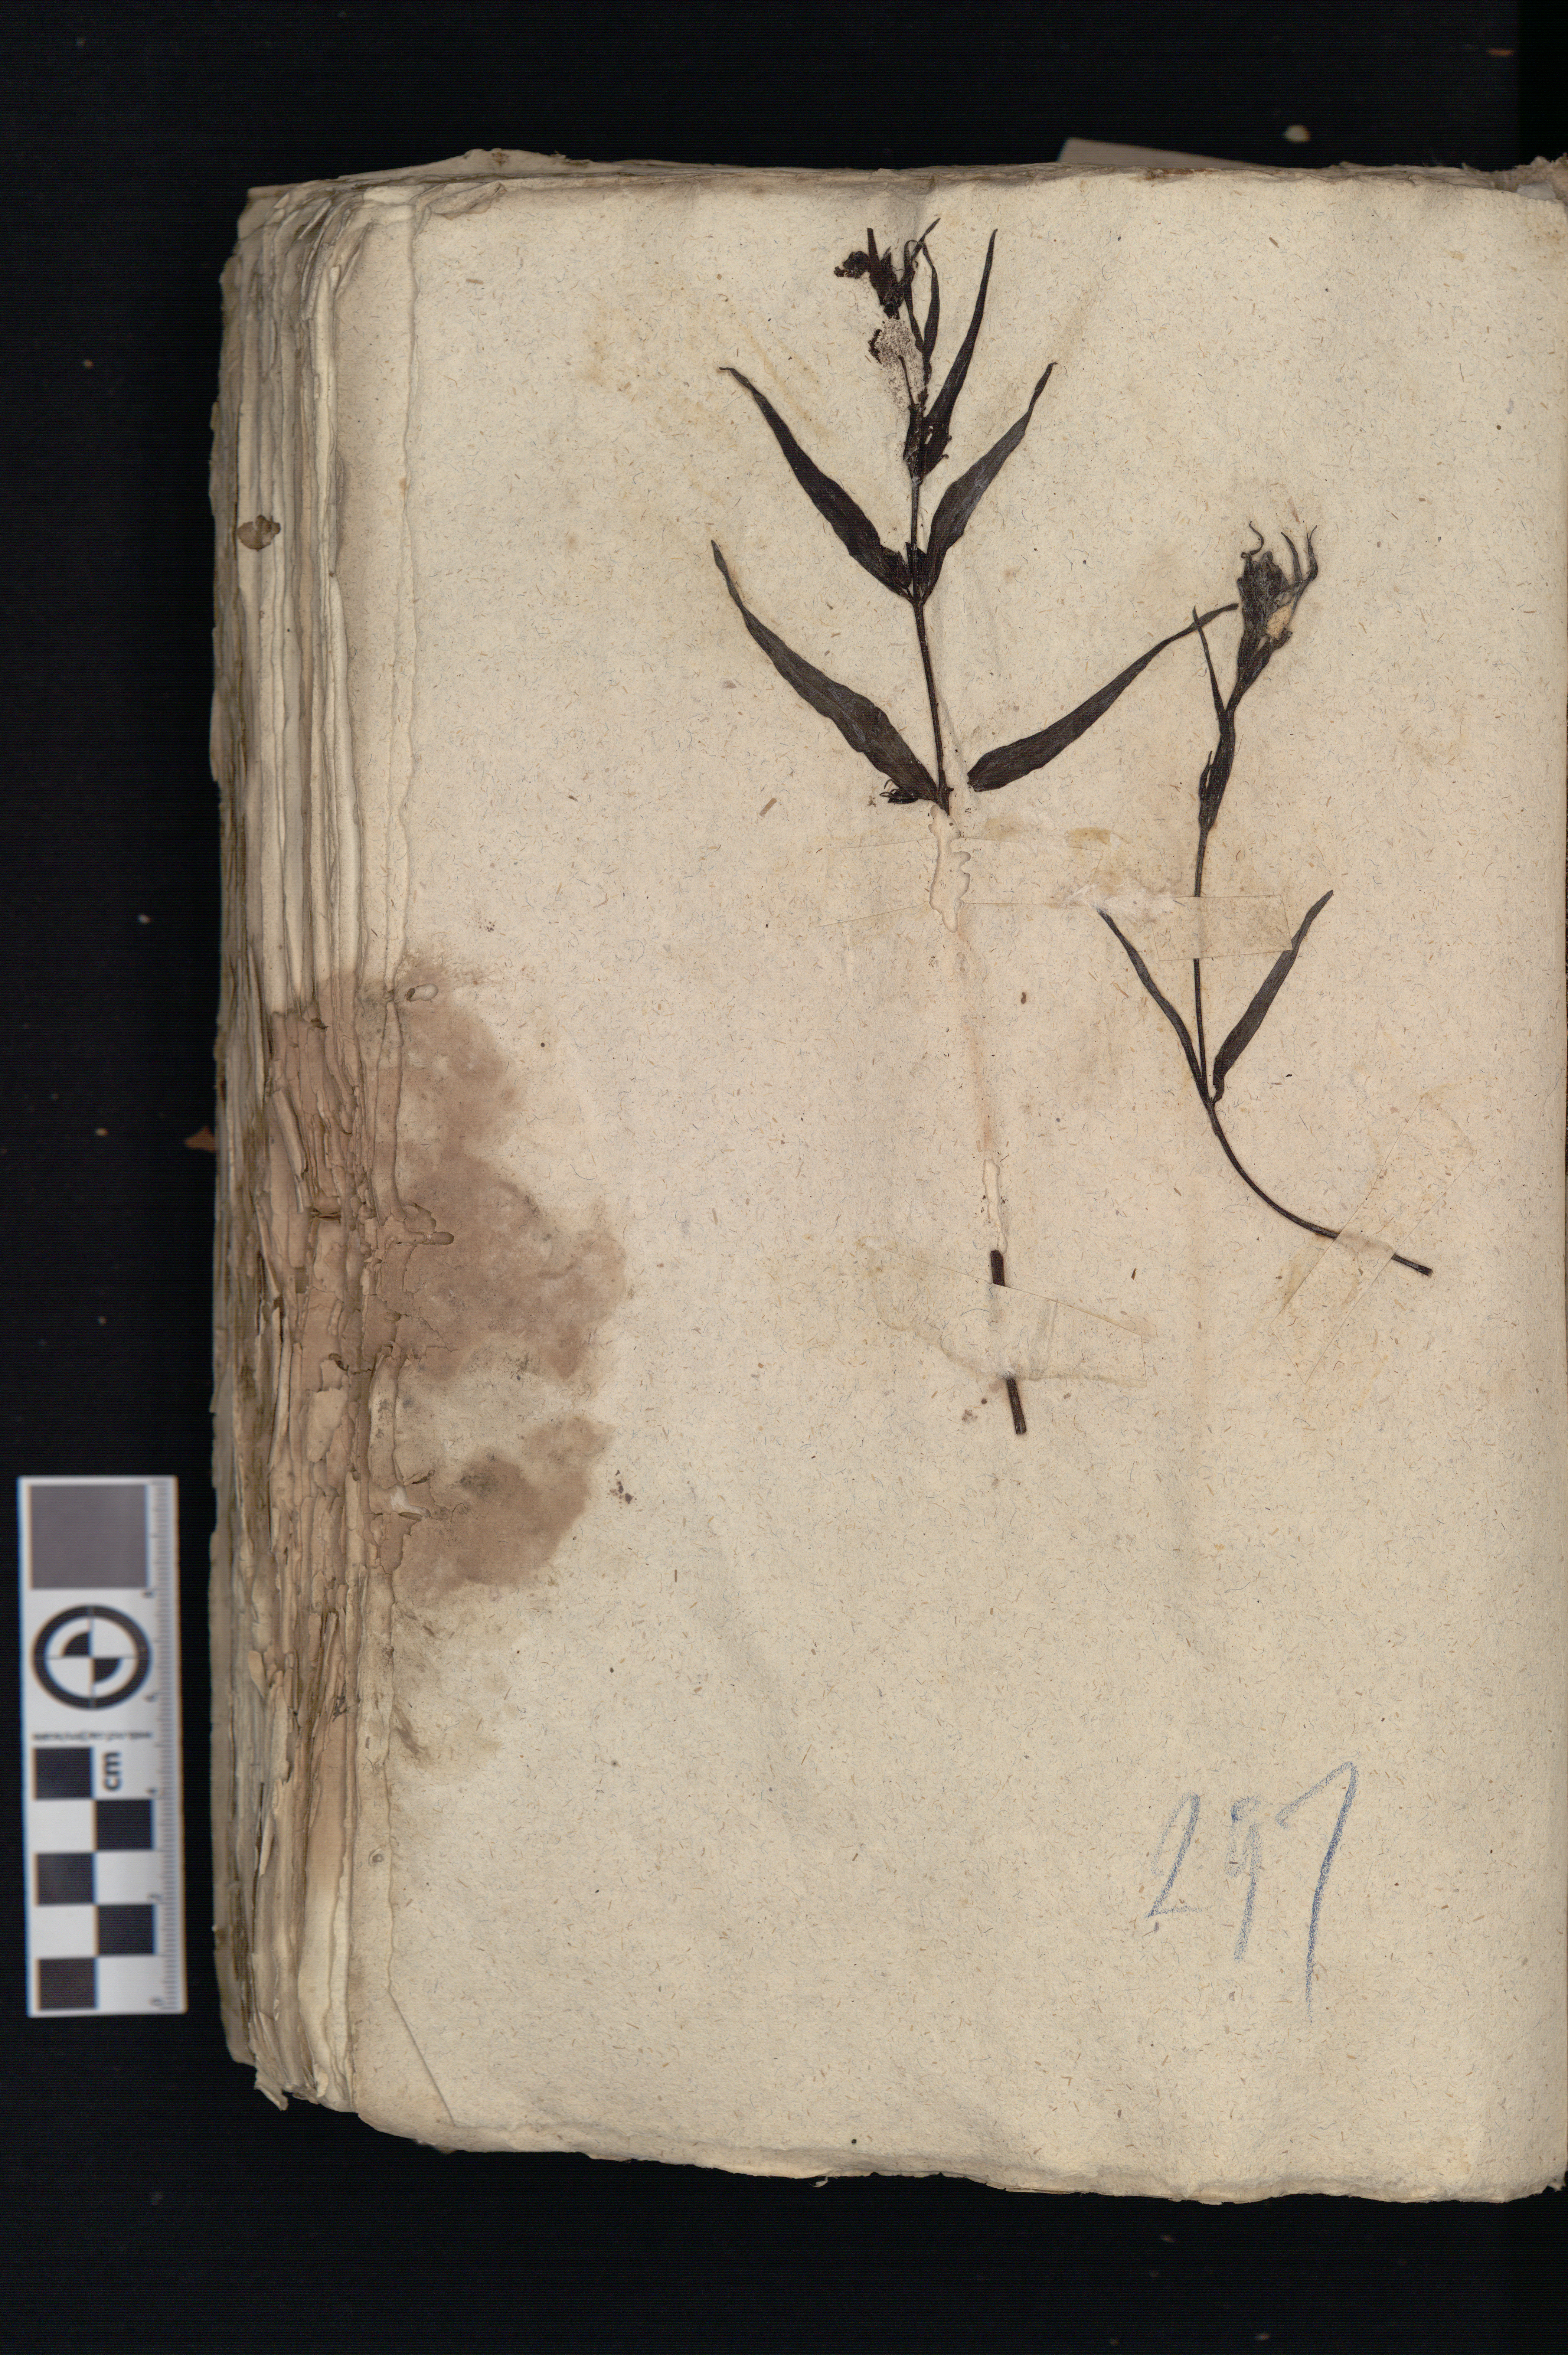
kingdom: Plantae
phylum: Tracheophyta
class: Magnoliopsida
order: Lamiales
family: Orobanchaceae
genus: Melampyrum
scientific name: Melampyrum pratense
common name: Common cow-wheat
